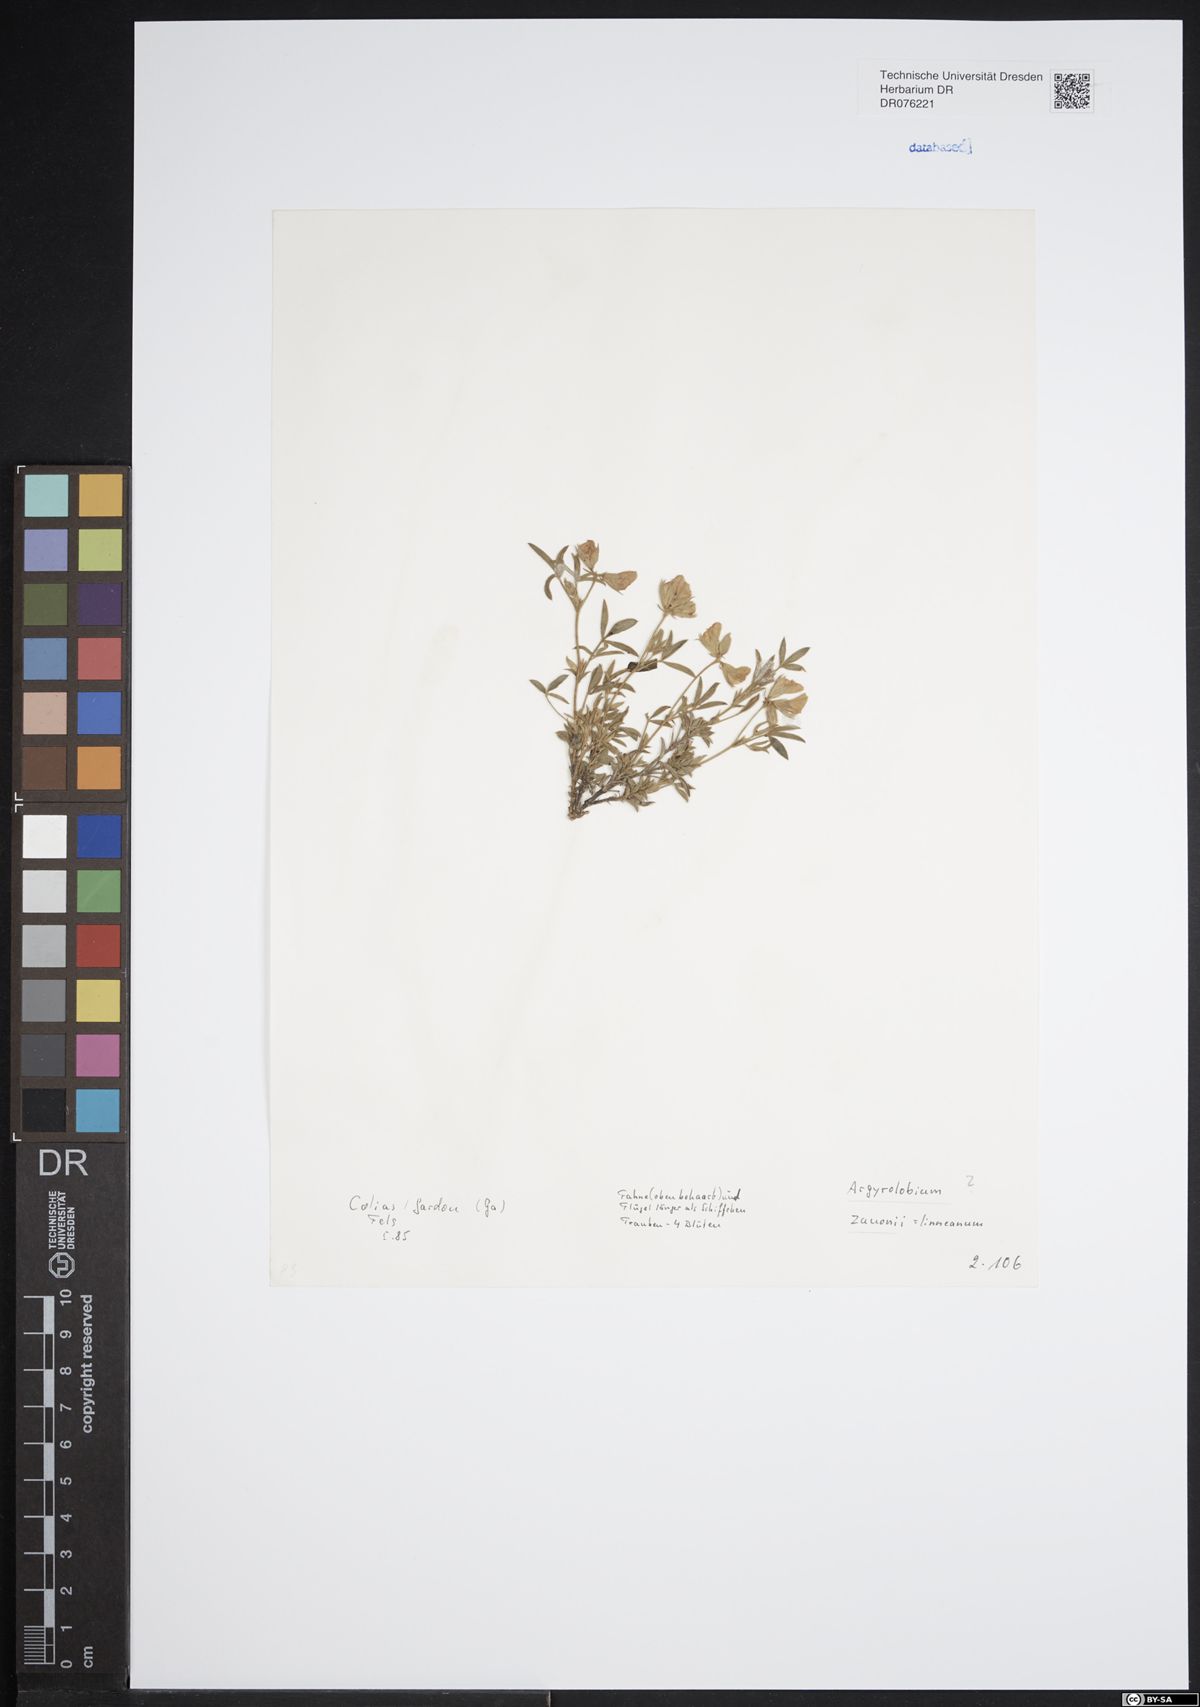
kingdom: Plantae
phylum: Tracheophyta
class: Magnoliopsida
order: Fabales
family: Fabaceae
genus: Argyrolobium
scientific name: Argyrolobium zanonii
